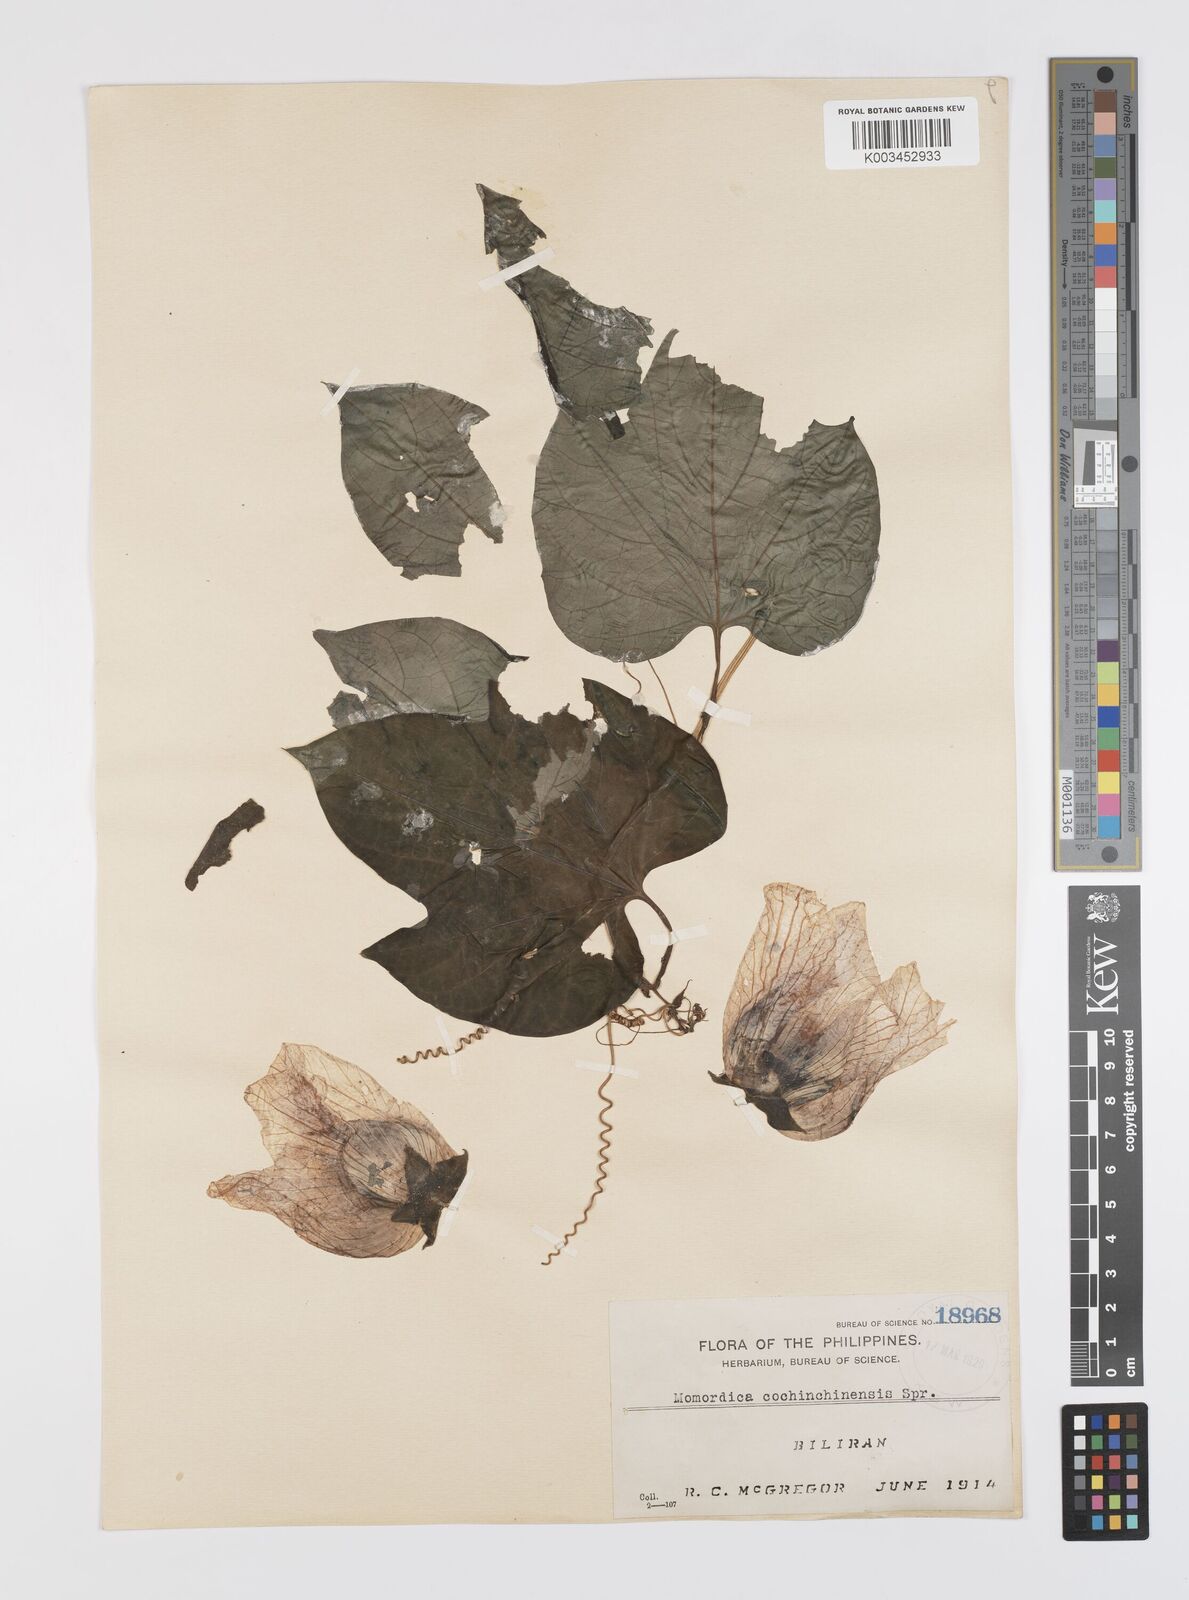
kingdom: Plantae
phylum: Tracheophyta
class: Magnoliopsida
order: Cucurbitales
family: Cucurbitaceae
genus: Momordica
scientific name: Momordica cochinchinensis
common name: Chinese bitter-cucumber
